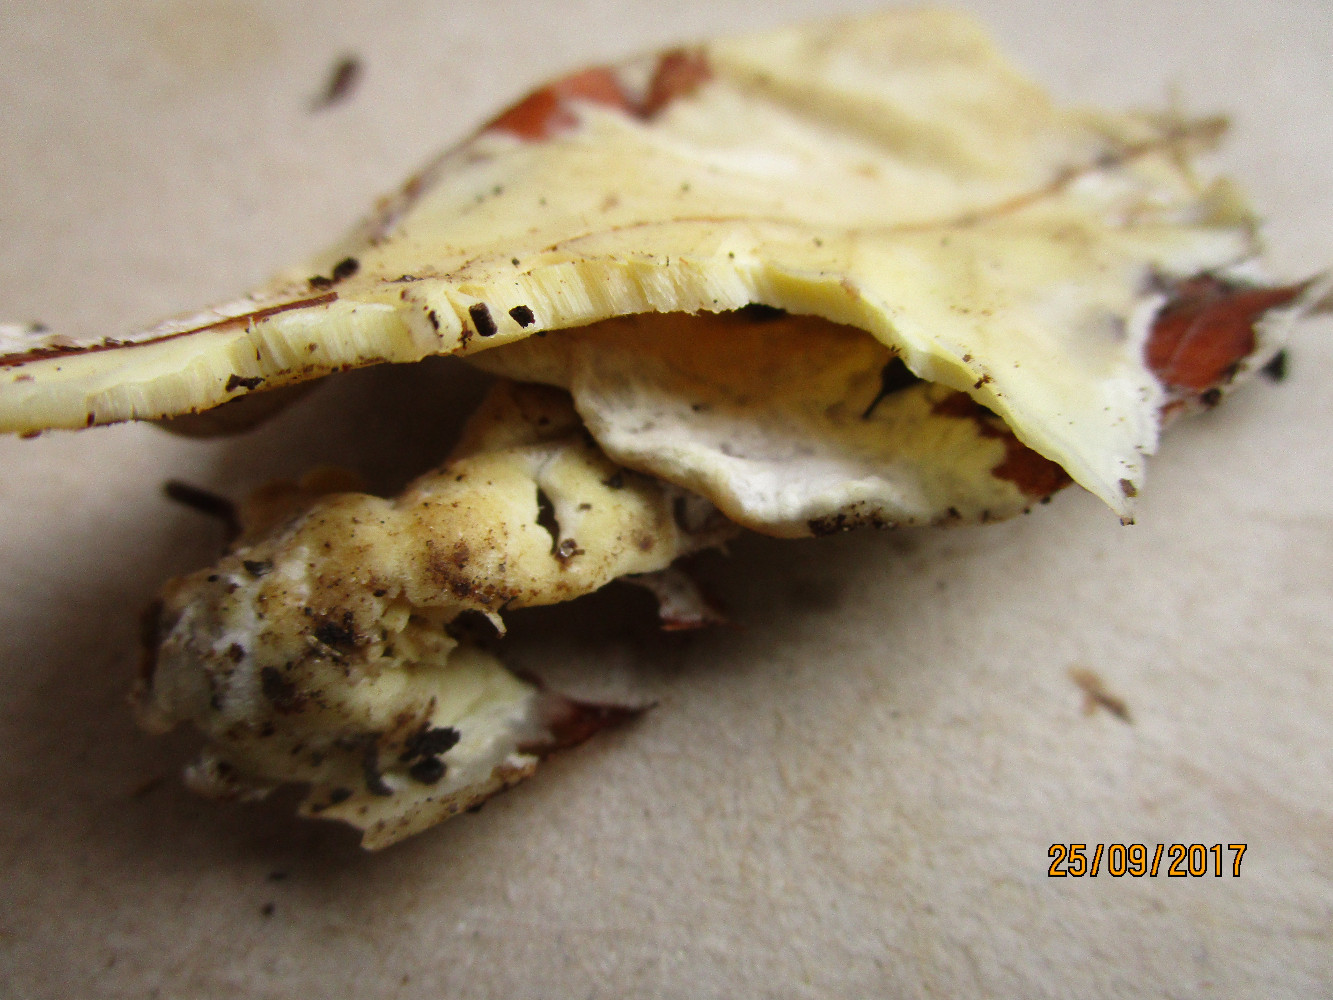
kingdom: Fungi
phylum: Basidiomycota
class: Agaricomycetes
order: Polyporales
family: Irpicaceae
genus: Gloeoporus
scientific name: Gloeoporus pannocinctus
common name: grøngul foldporesvamp
